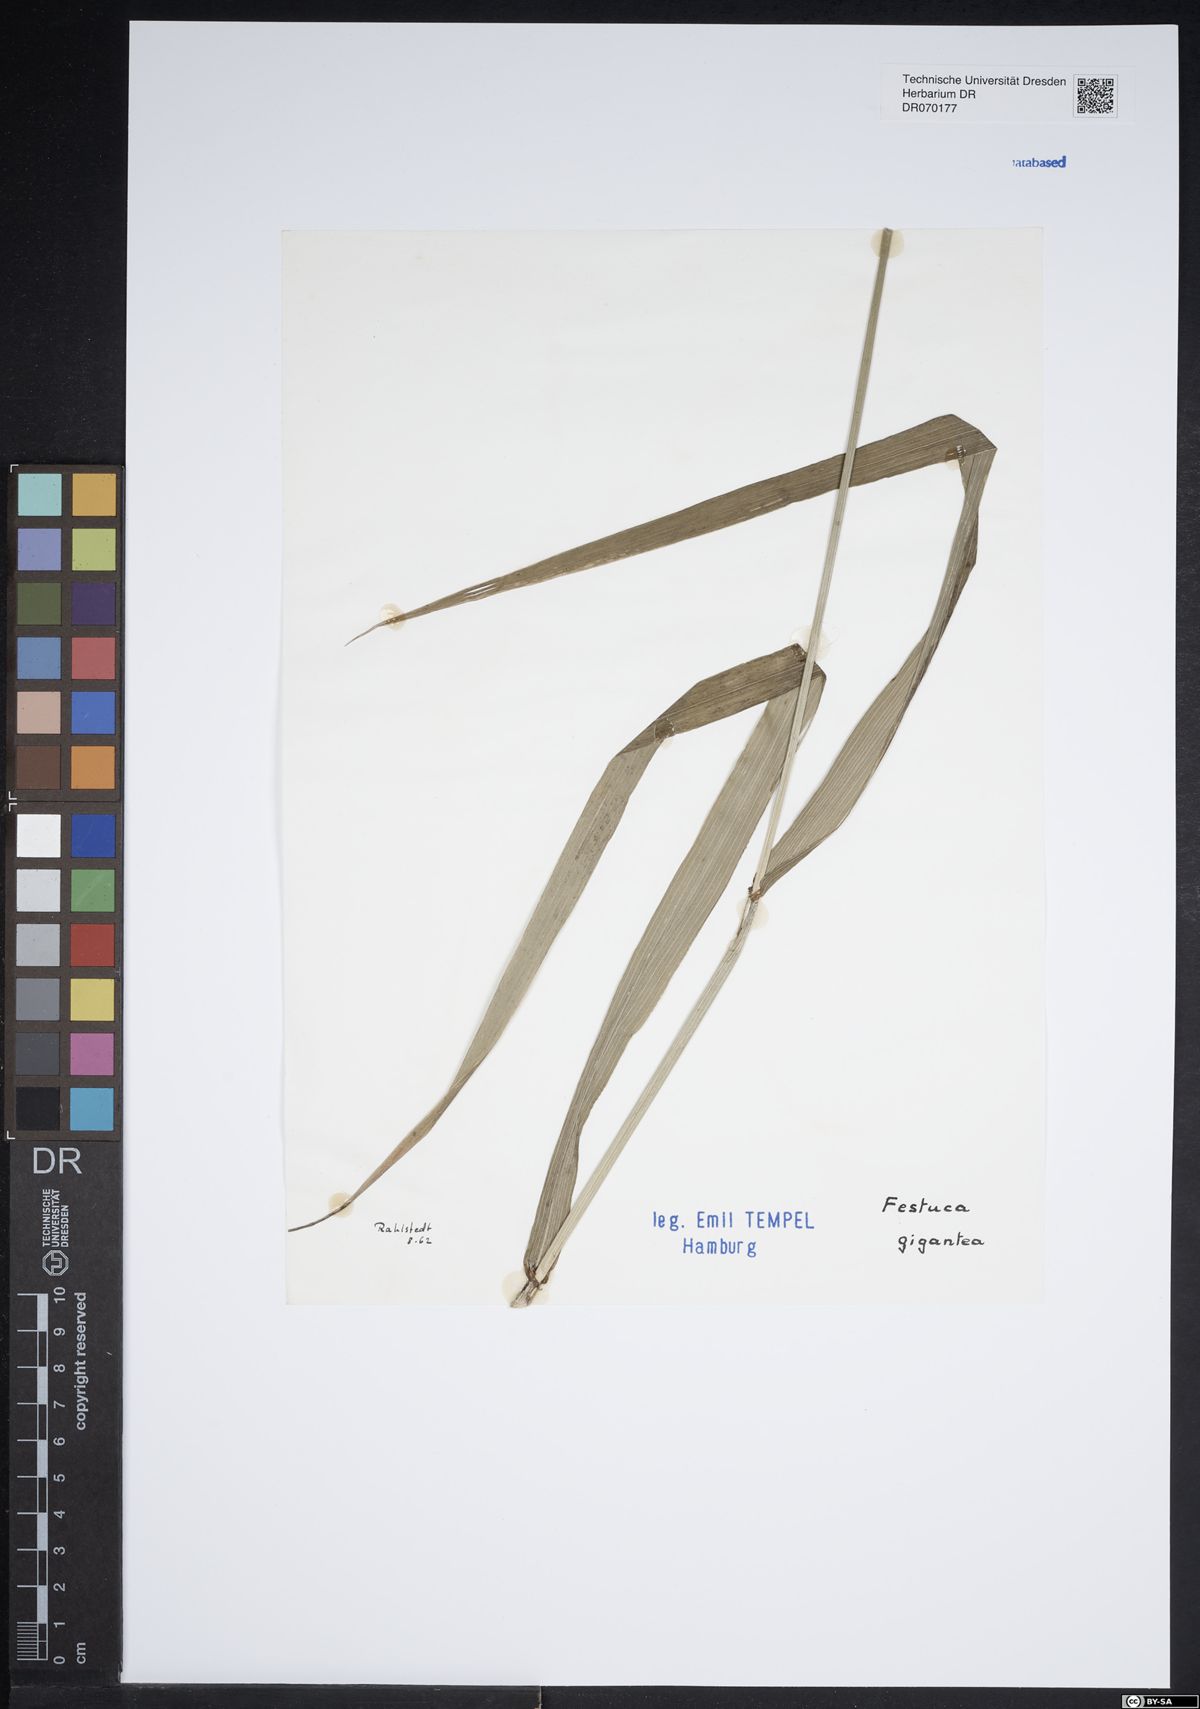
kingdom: Plantae
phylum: Tracheophyta
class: Liliopsida
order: Poales
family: Poaceae
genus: Lolium
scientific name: Lolium giganteum
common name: Giant fescue
